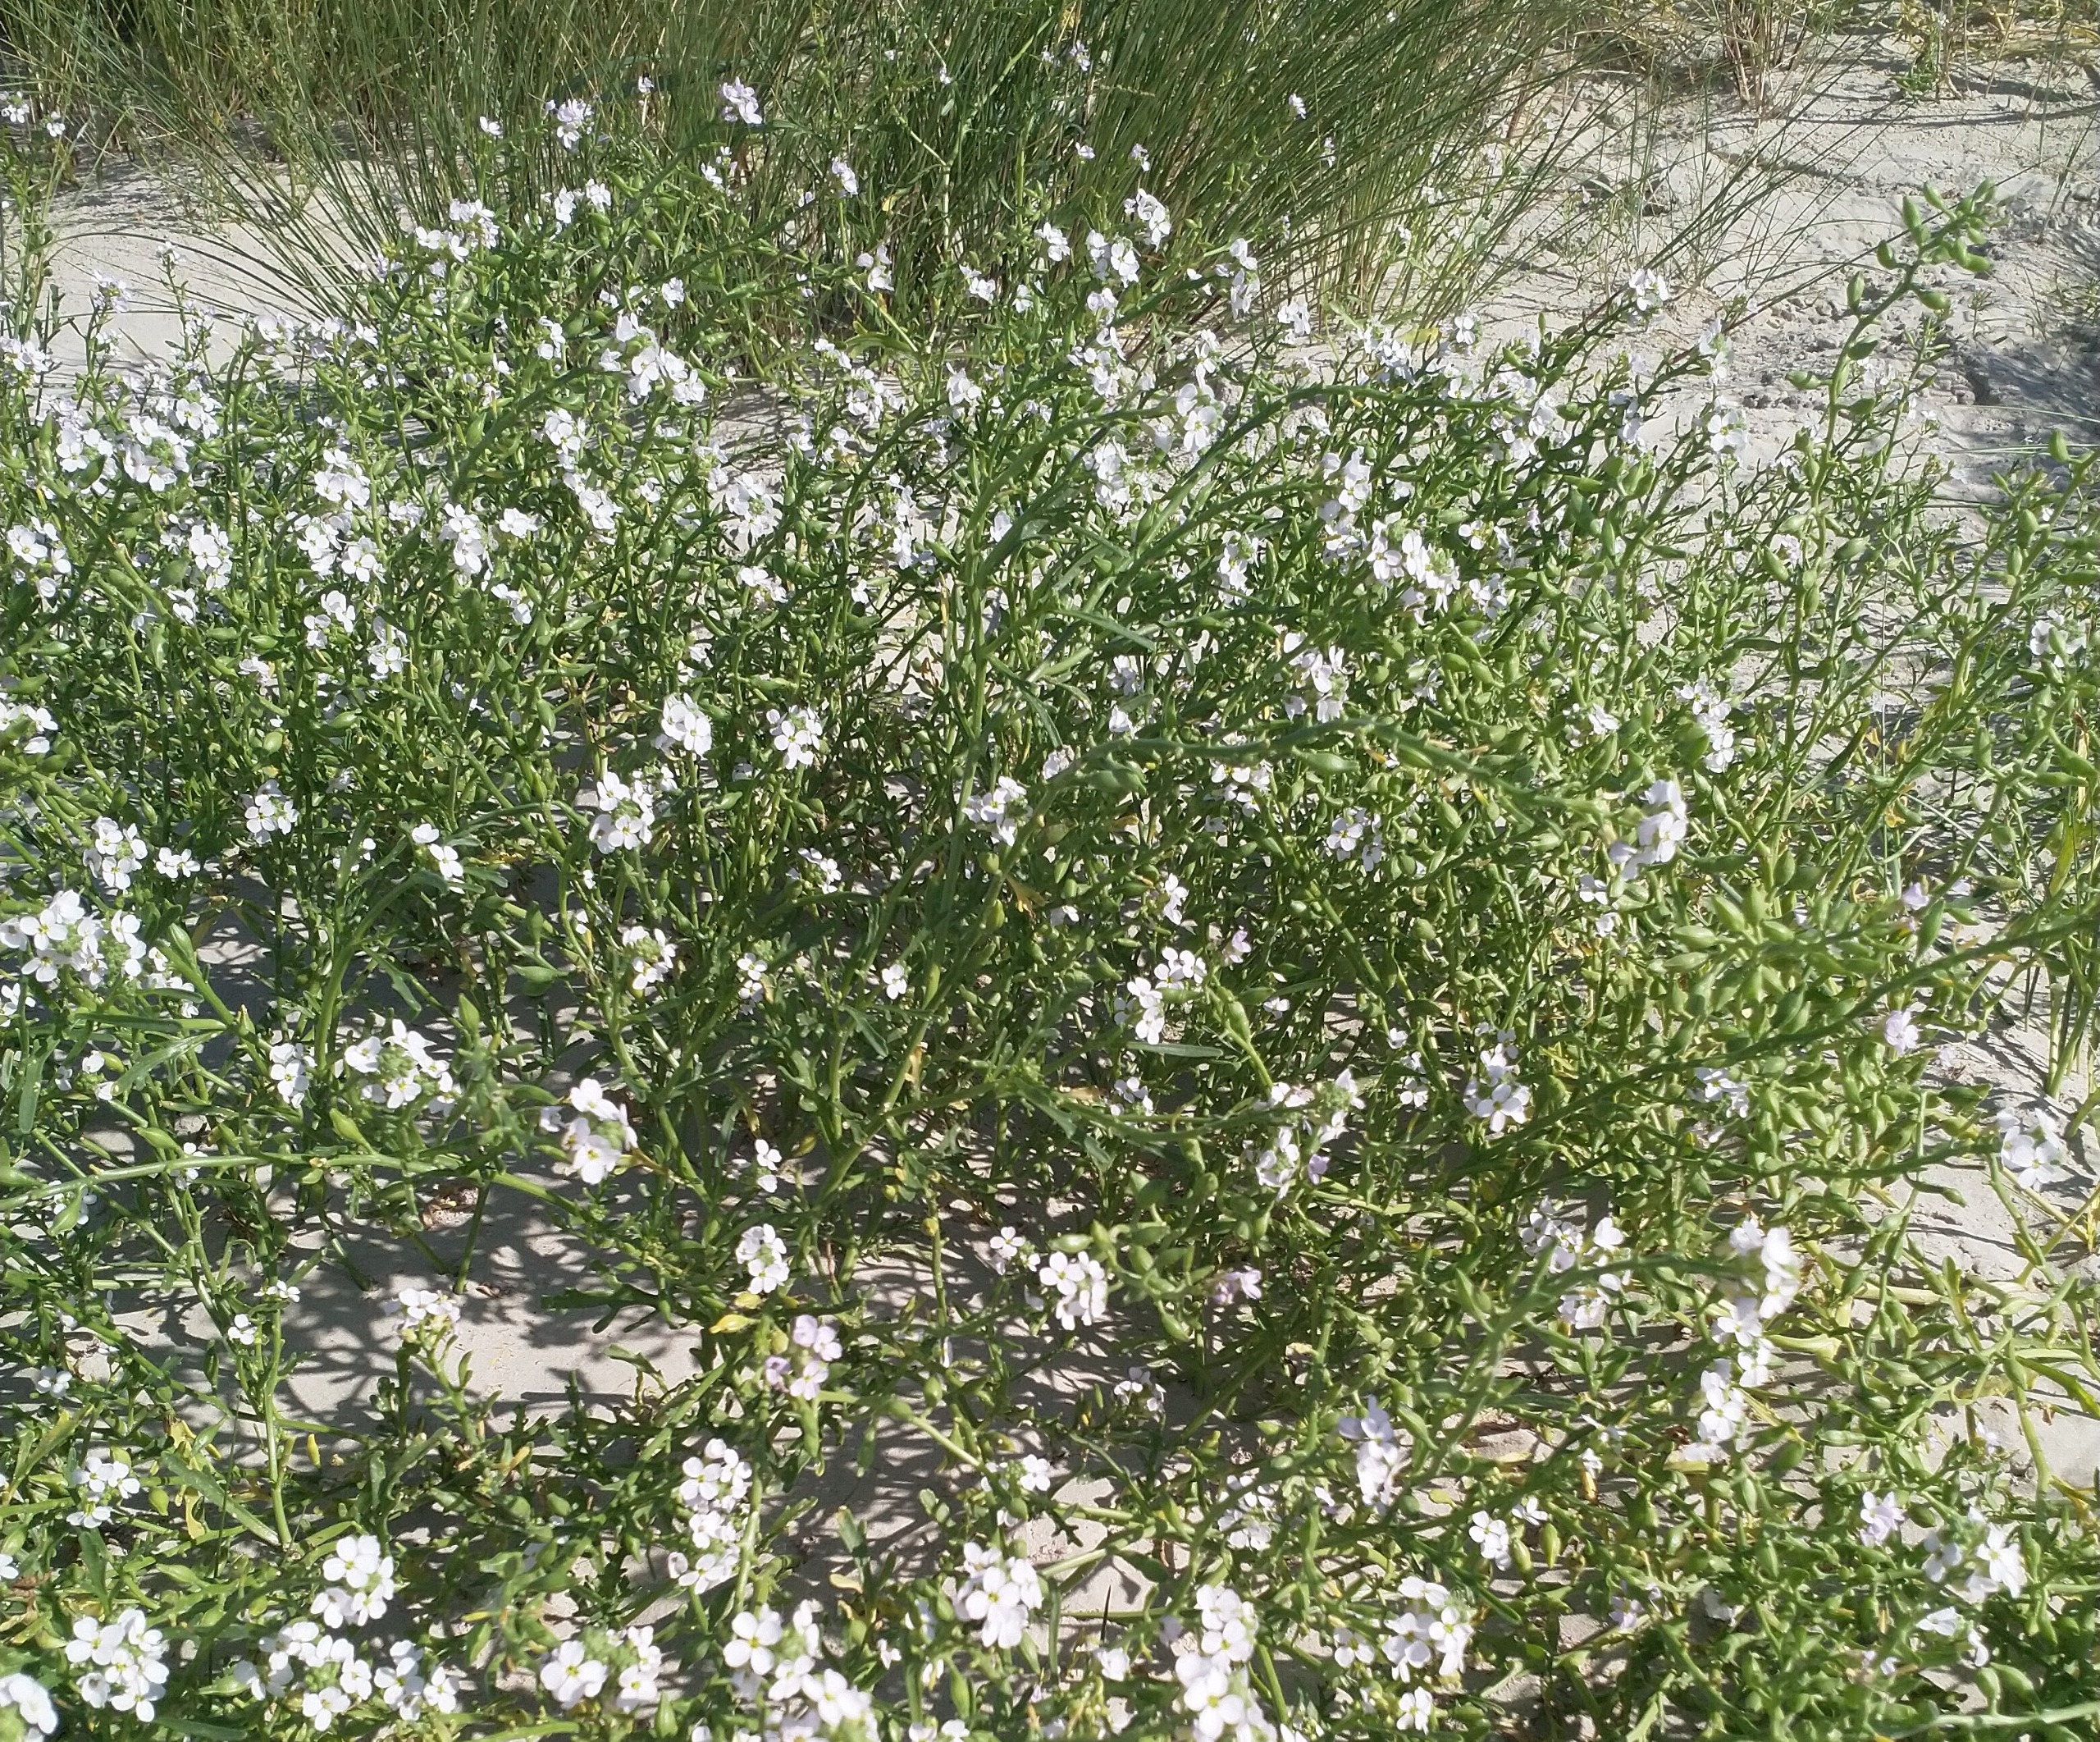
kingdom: Plantae
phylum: Tracheophyta
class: Magnoliopsida
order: Brassicales
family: Brassicaceae
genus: Cakile
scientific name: Cakile maritima
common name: Strandsennep
